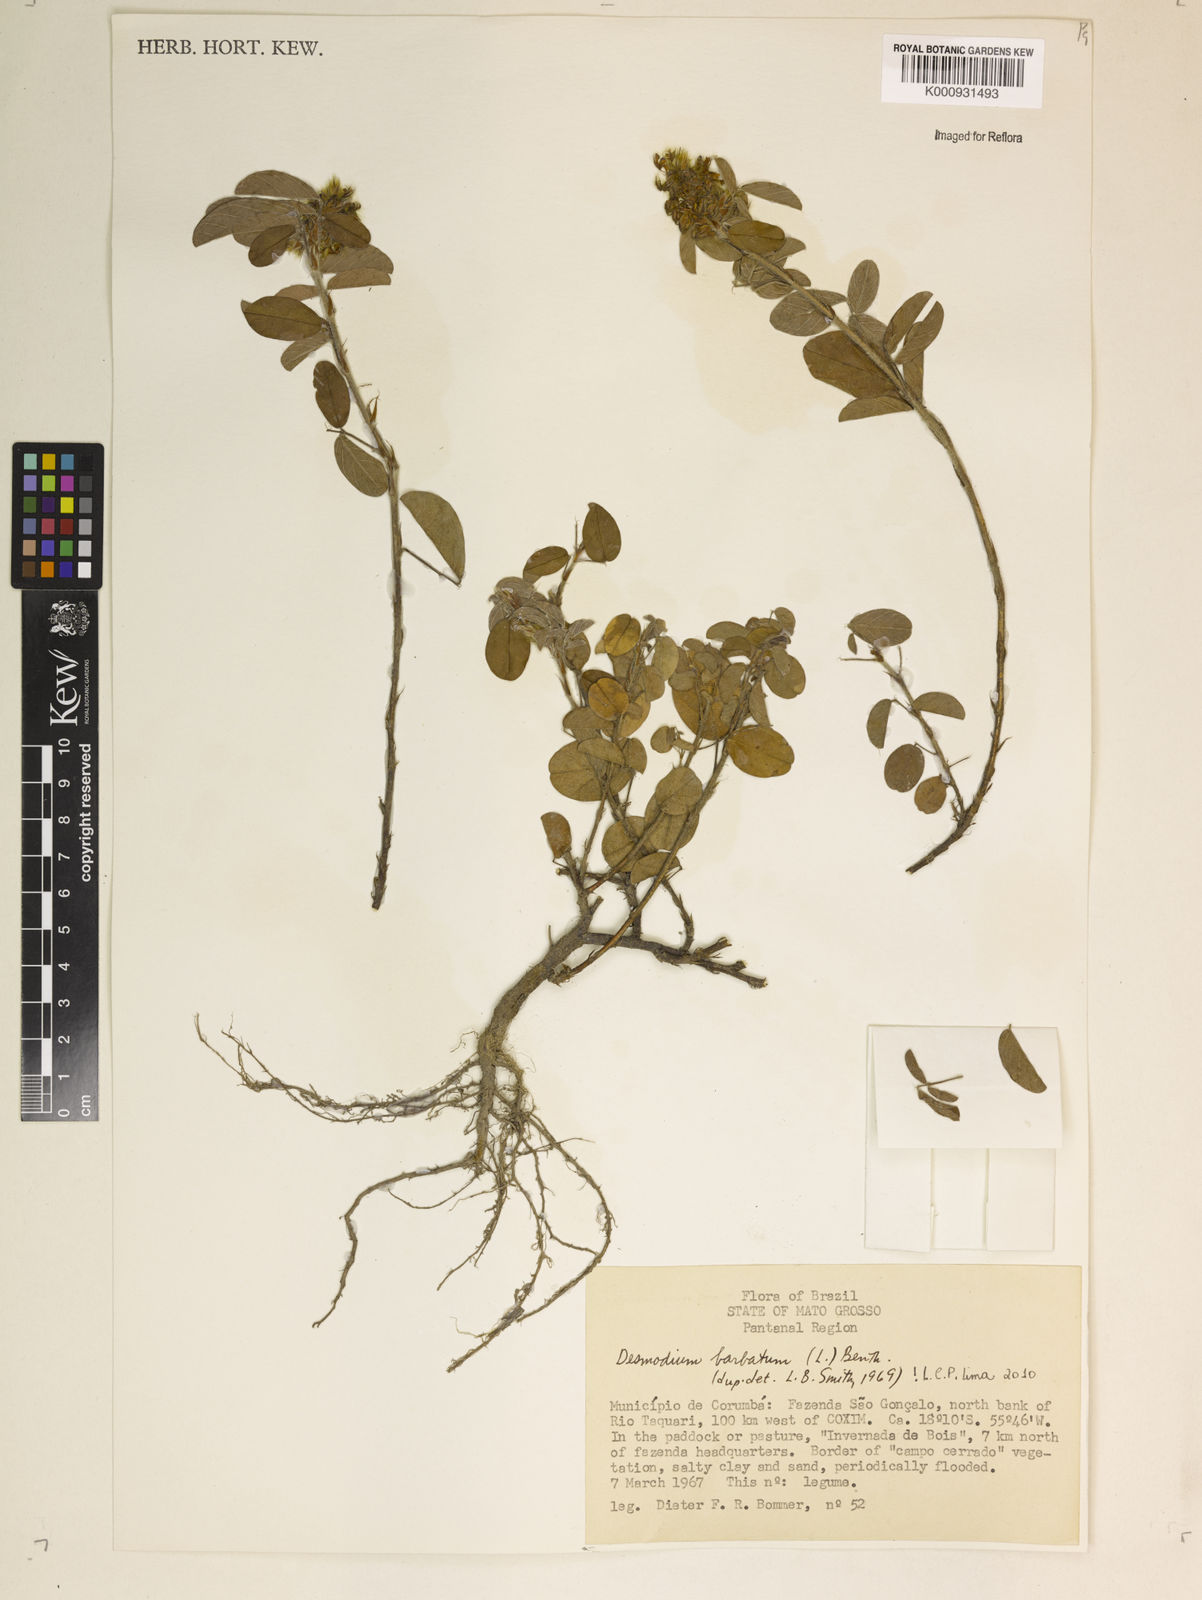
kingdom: Plantae
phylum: Tracheophyta
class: Magnoliopsida
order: Fabales
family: Fabaceae
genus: Grona
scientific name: Grona barbata
